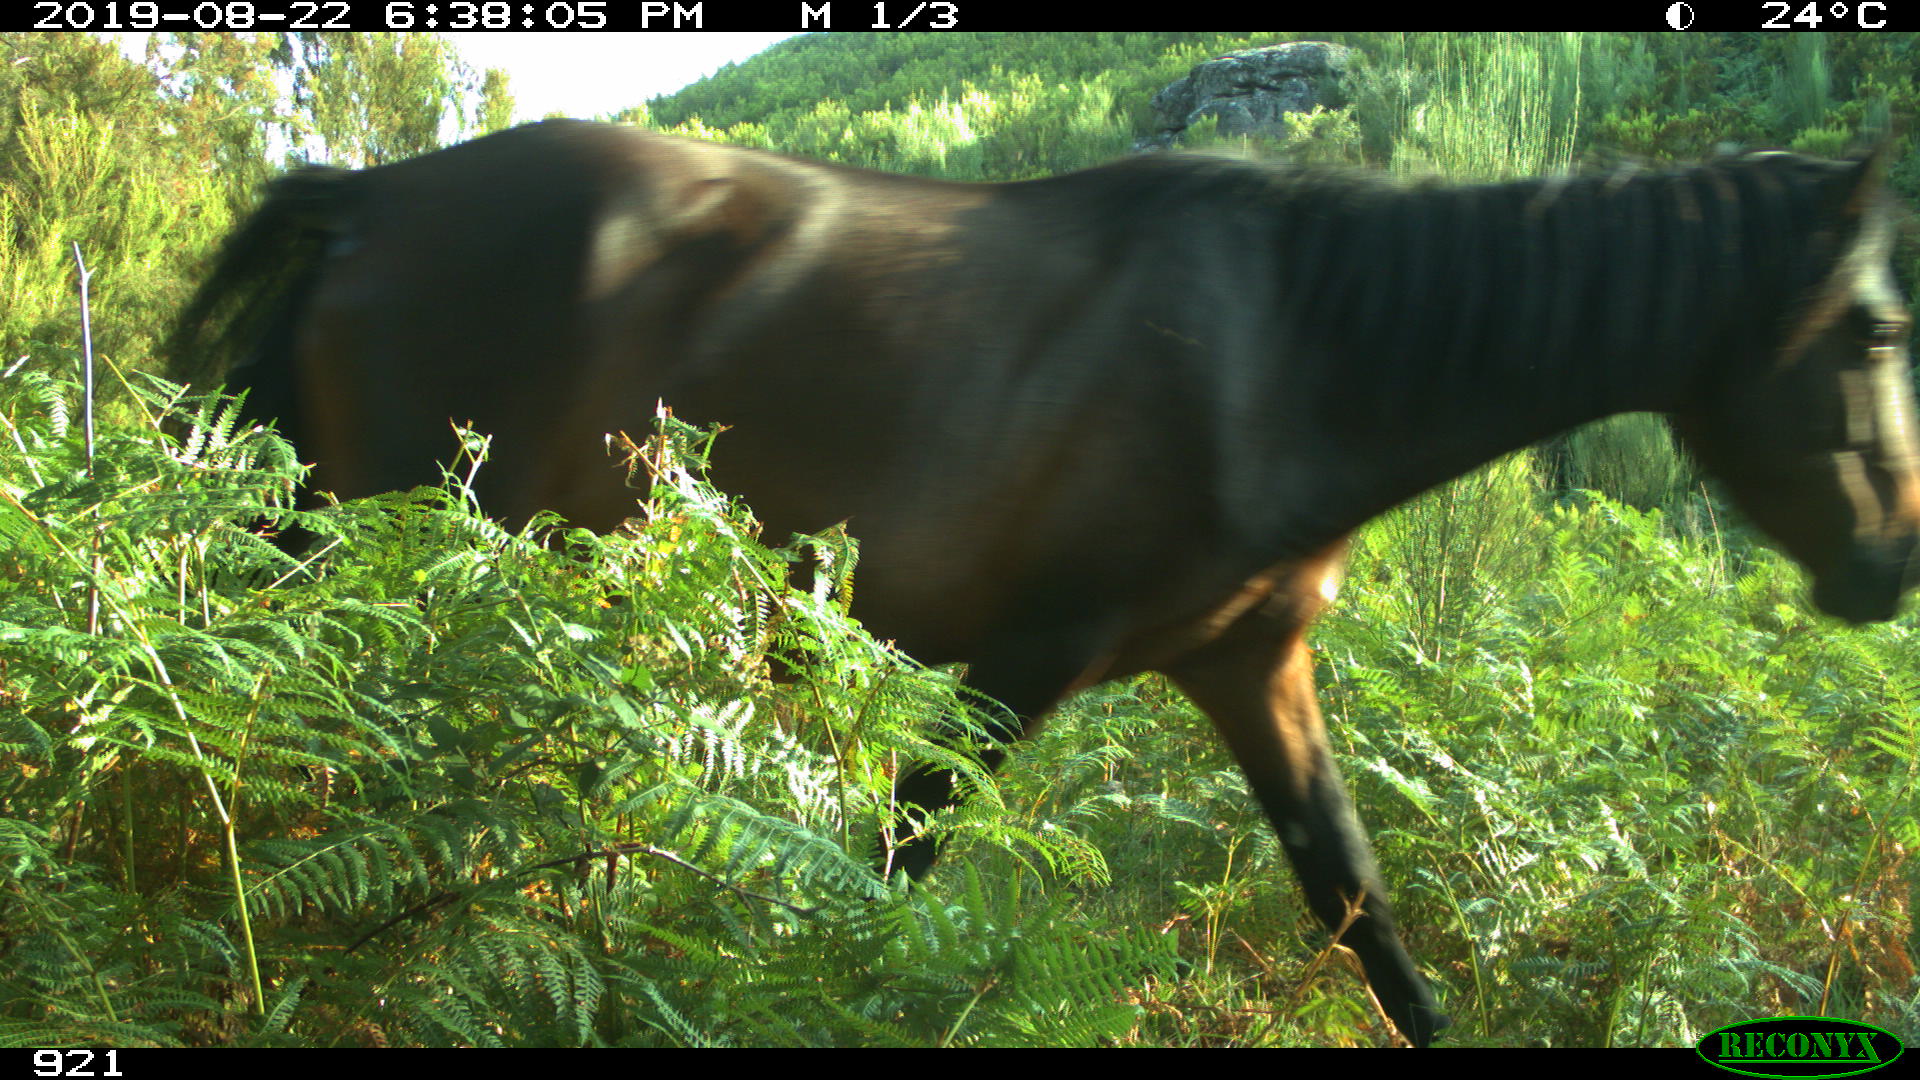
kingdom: Animalia
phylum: Chordata
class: Mammalia
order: Perissodactyla
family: Equidae
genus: Equus
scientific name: Equus caballus
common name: Horse
